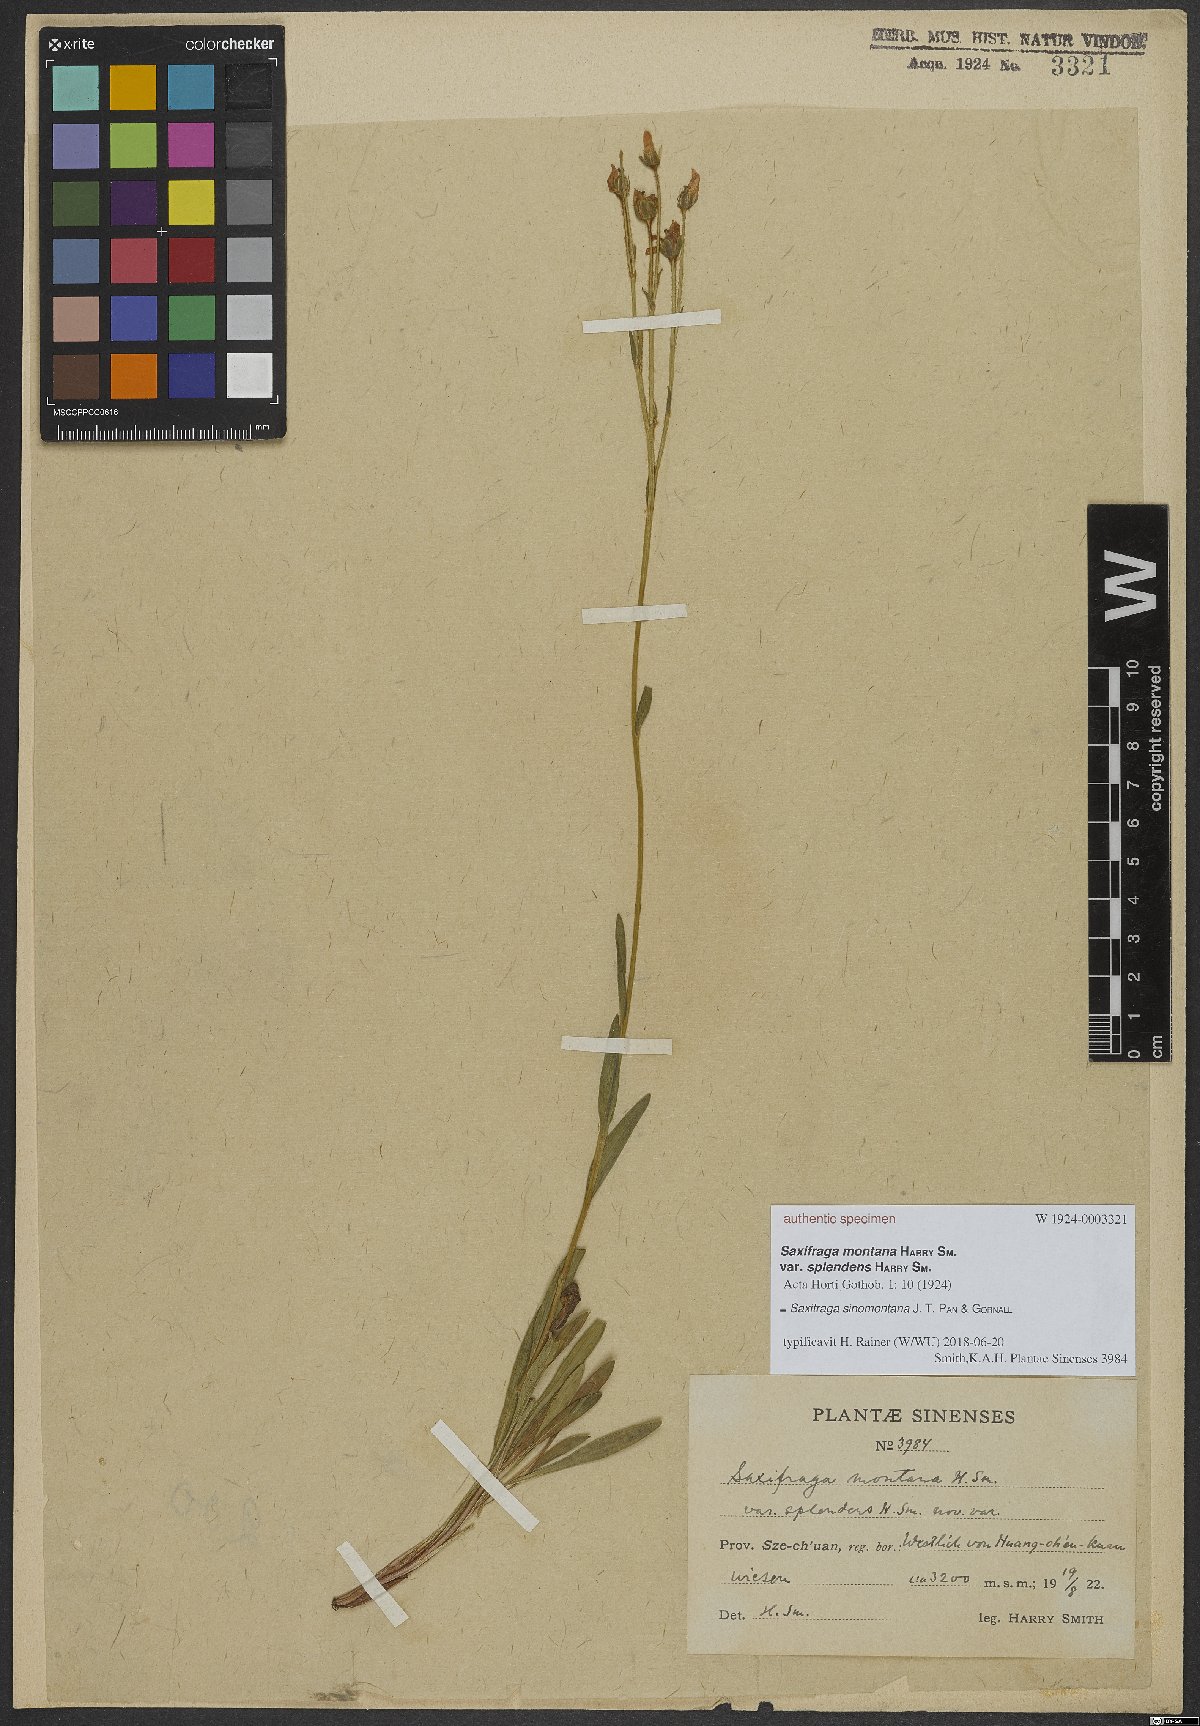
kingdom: Plantae
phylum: Tracheophyta
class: Magnoliopsida
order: Saxifragales
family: Saxifragaceae
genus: Saxifraga
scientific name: Saxifraga sinomontana
